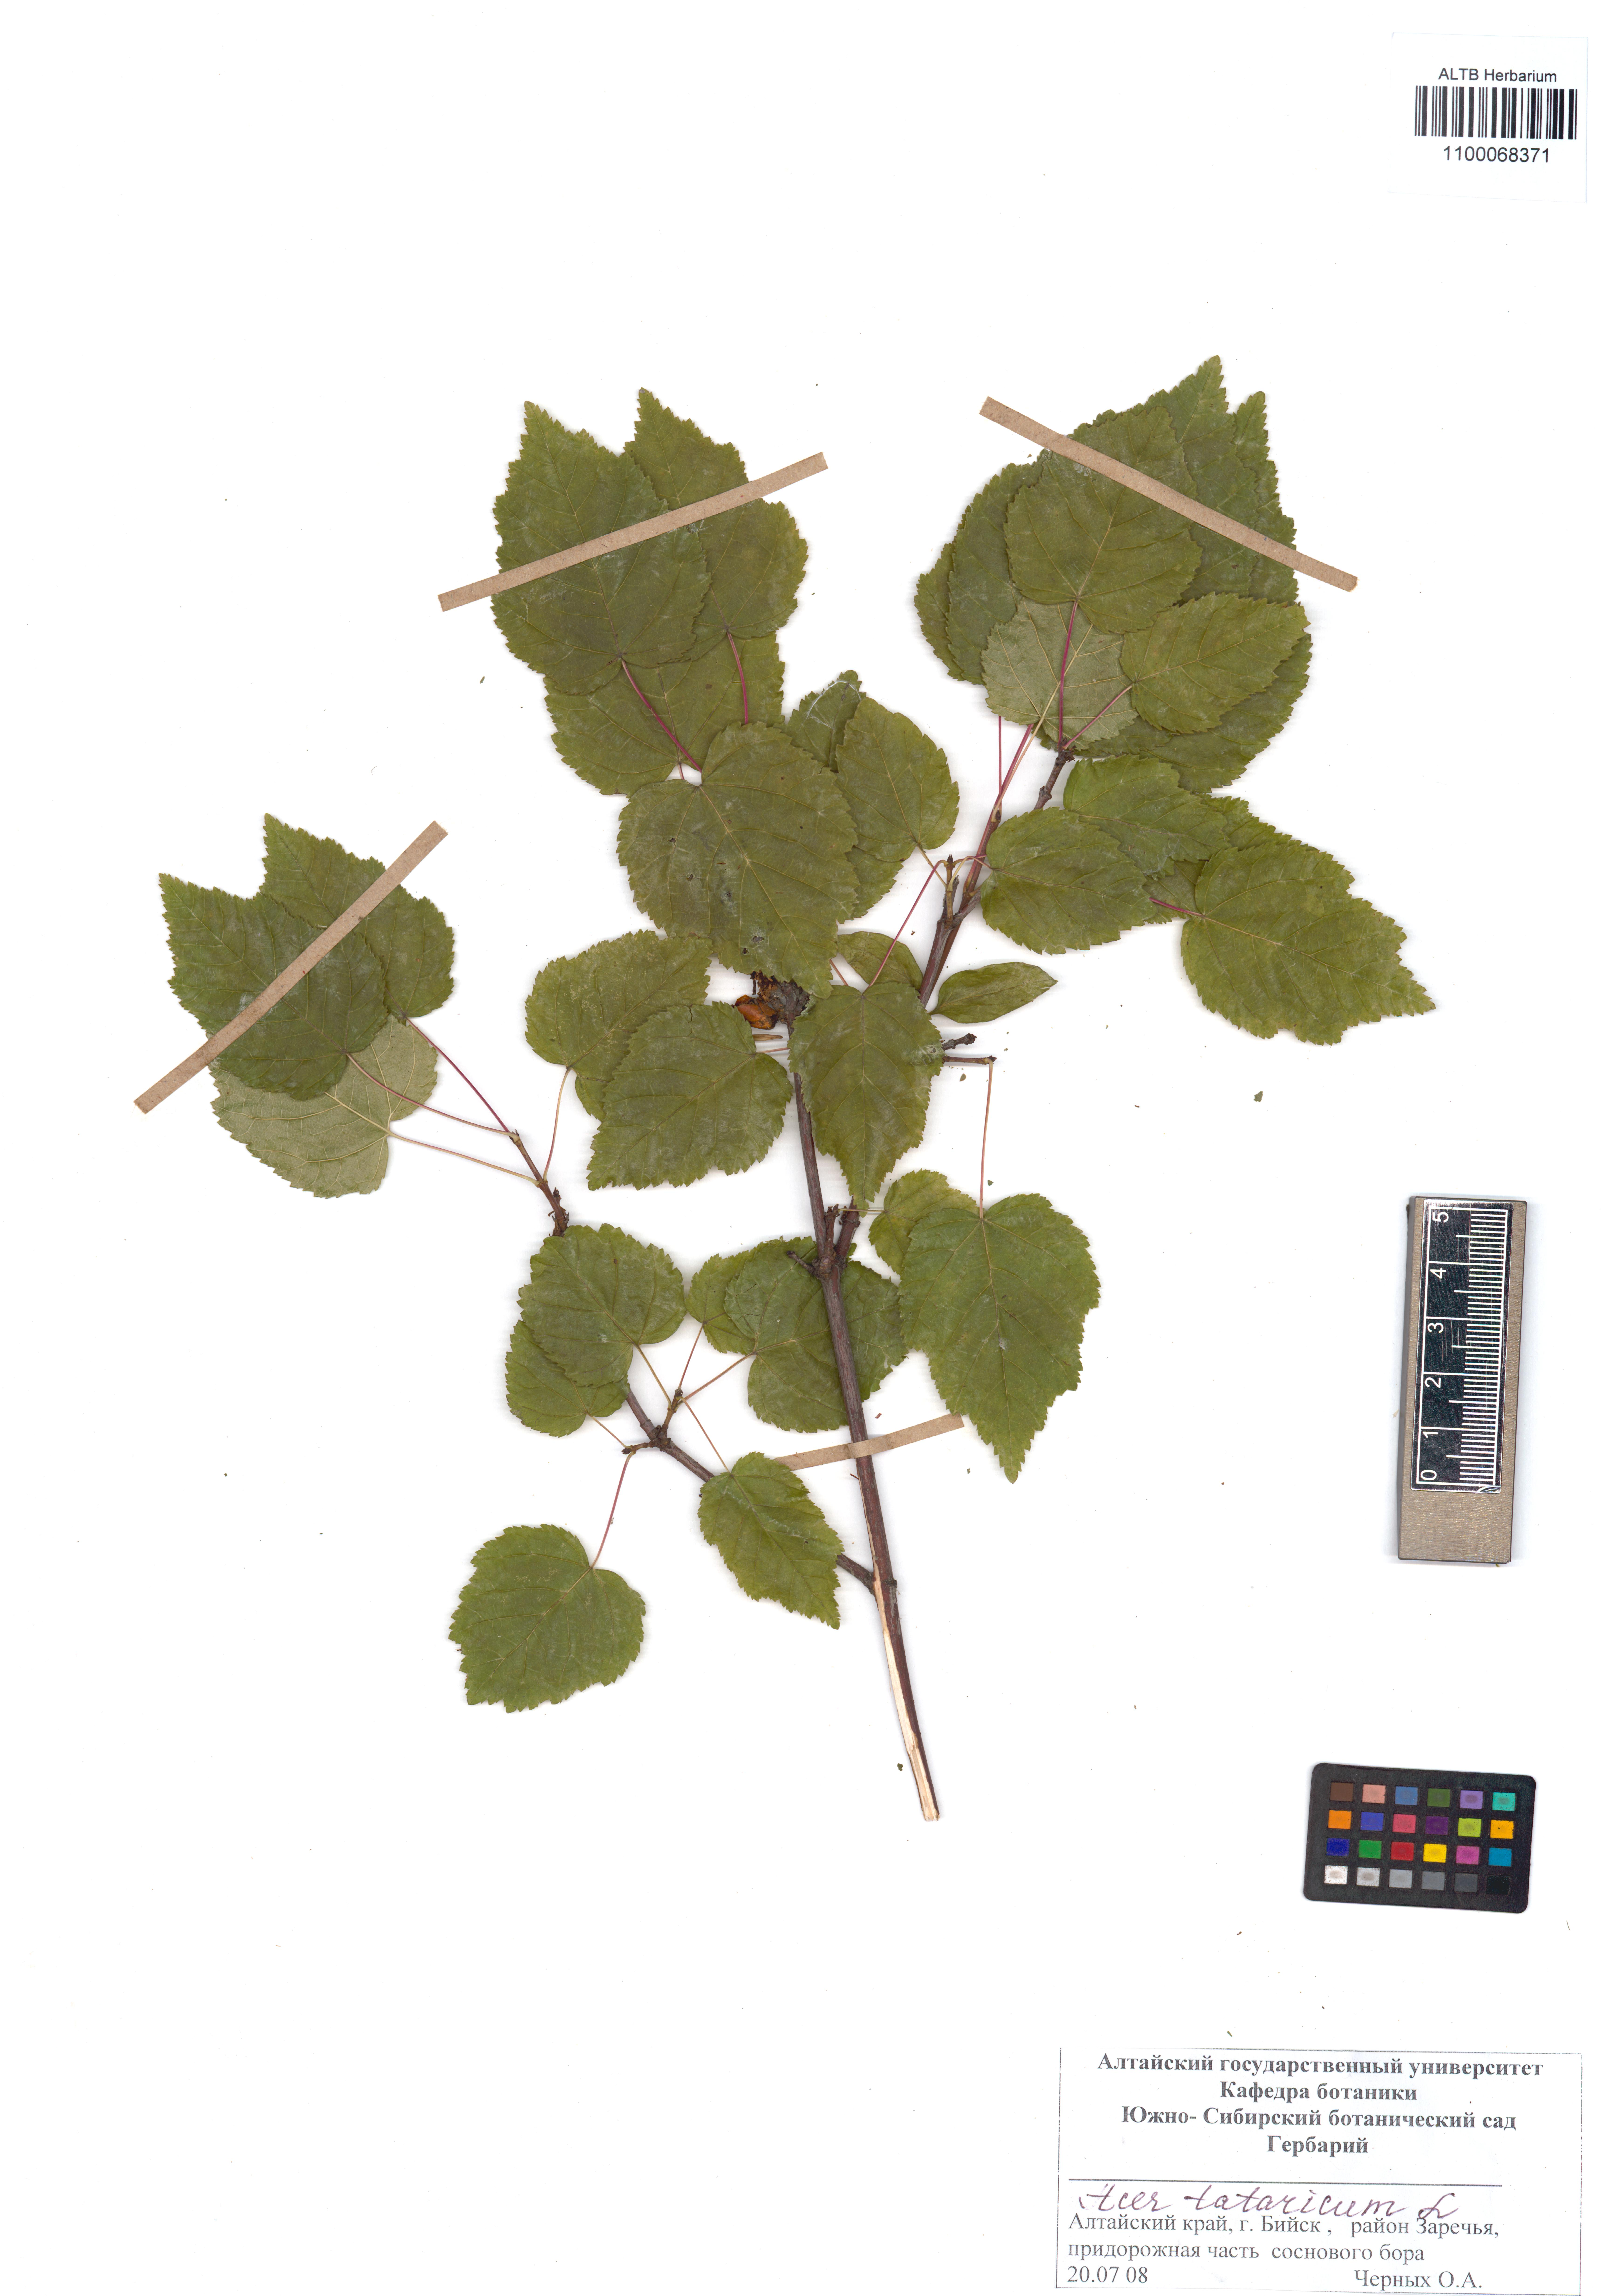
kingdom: Plantae
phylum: Tracheophyta
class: Magnoliopsida
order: Sapindales
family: Sapindaceae
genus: Acer
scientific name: Acer tataricum
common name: Tartar maple
